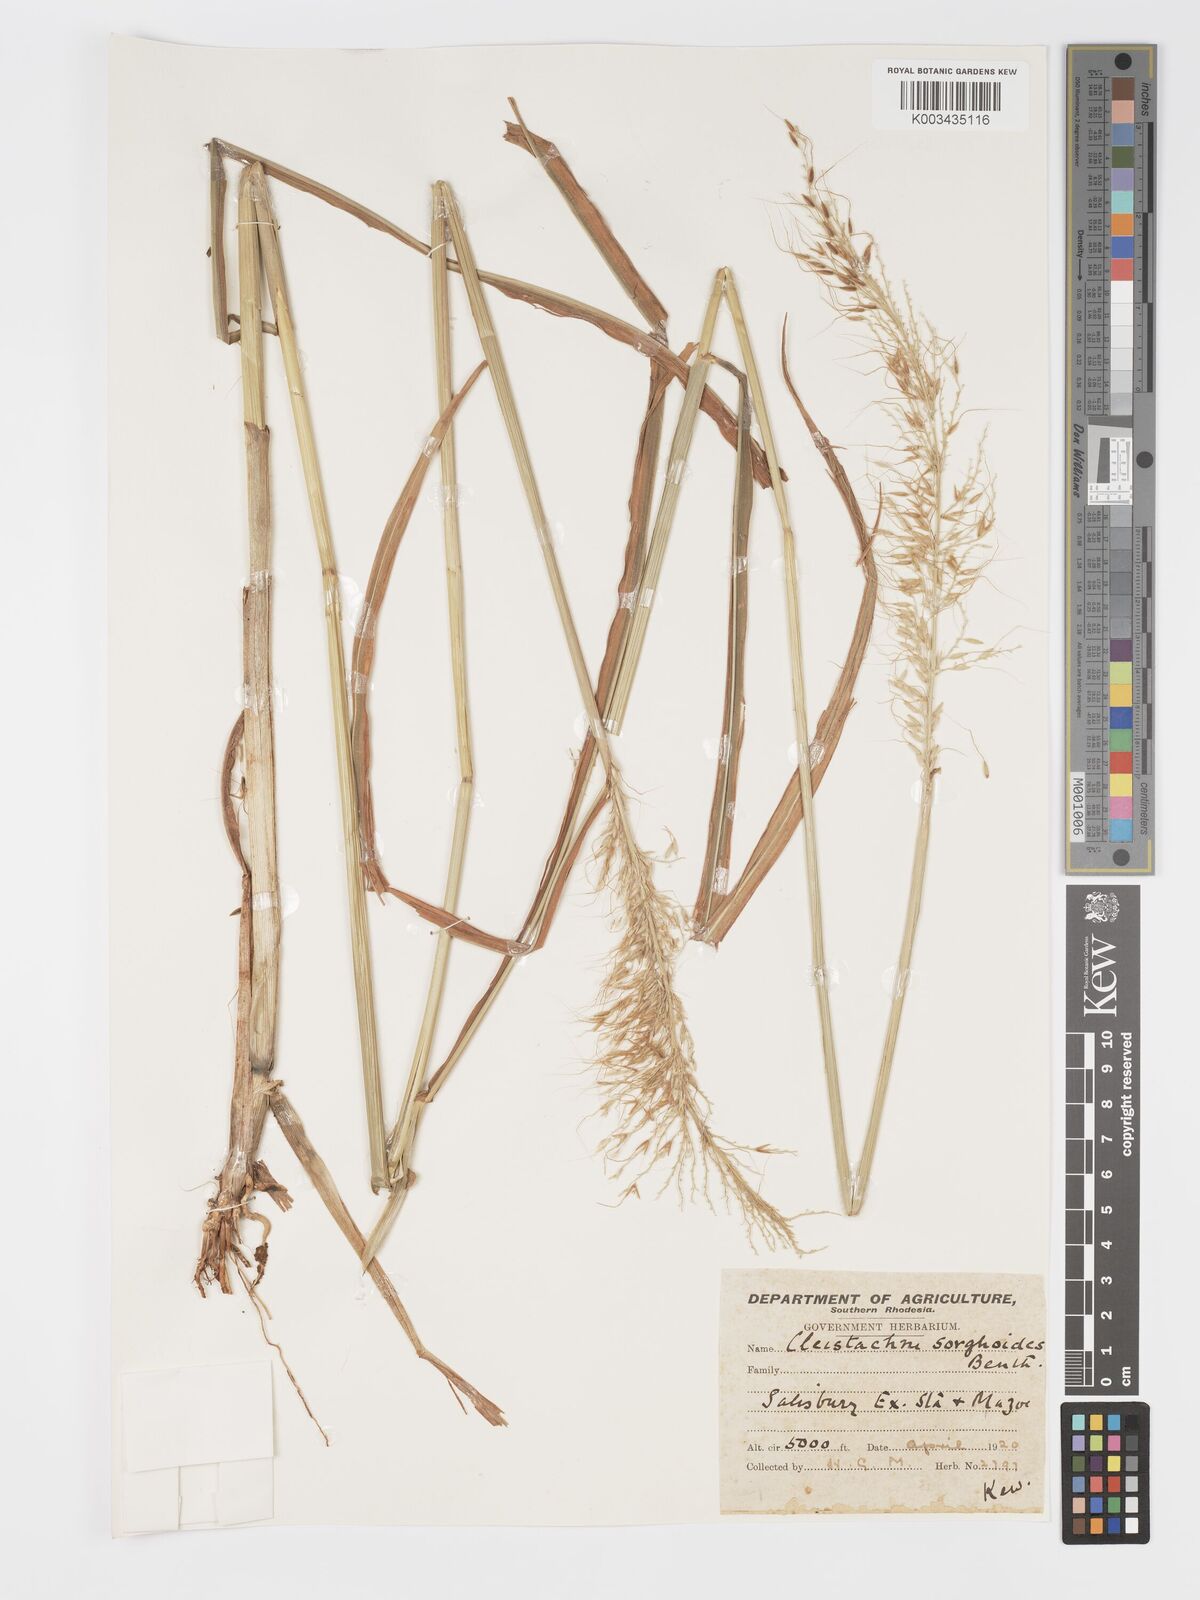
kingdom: Plantae
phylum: Tracheophyta
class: Liliopsida
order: Poales
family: Poaceae
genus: Cleistachne
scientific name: Cleistachne sorghoides
